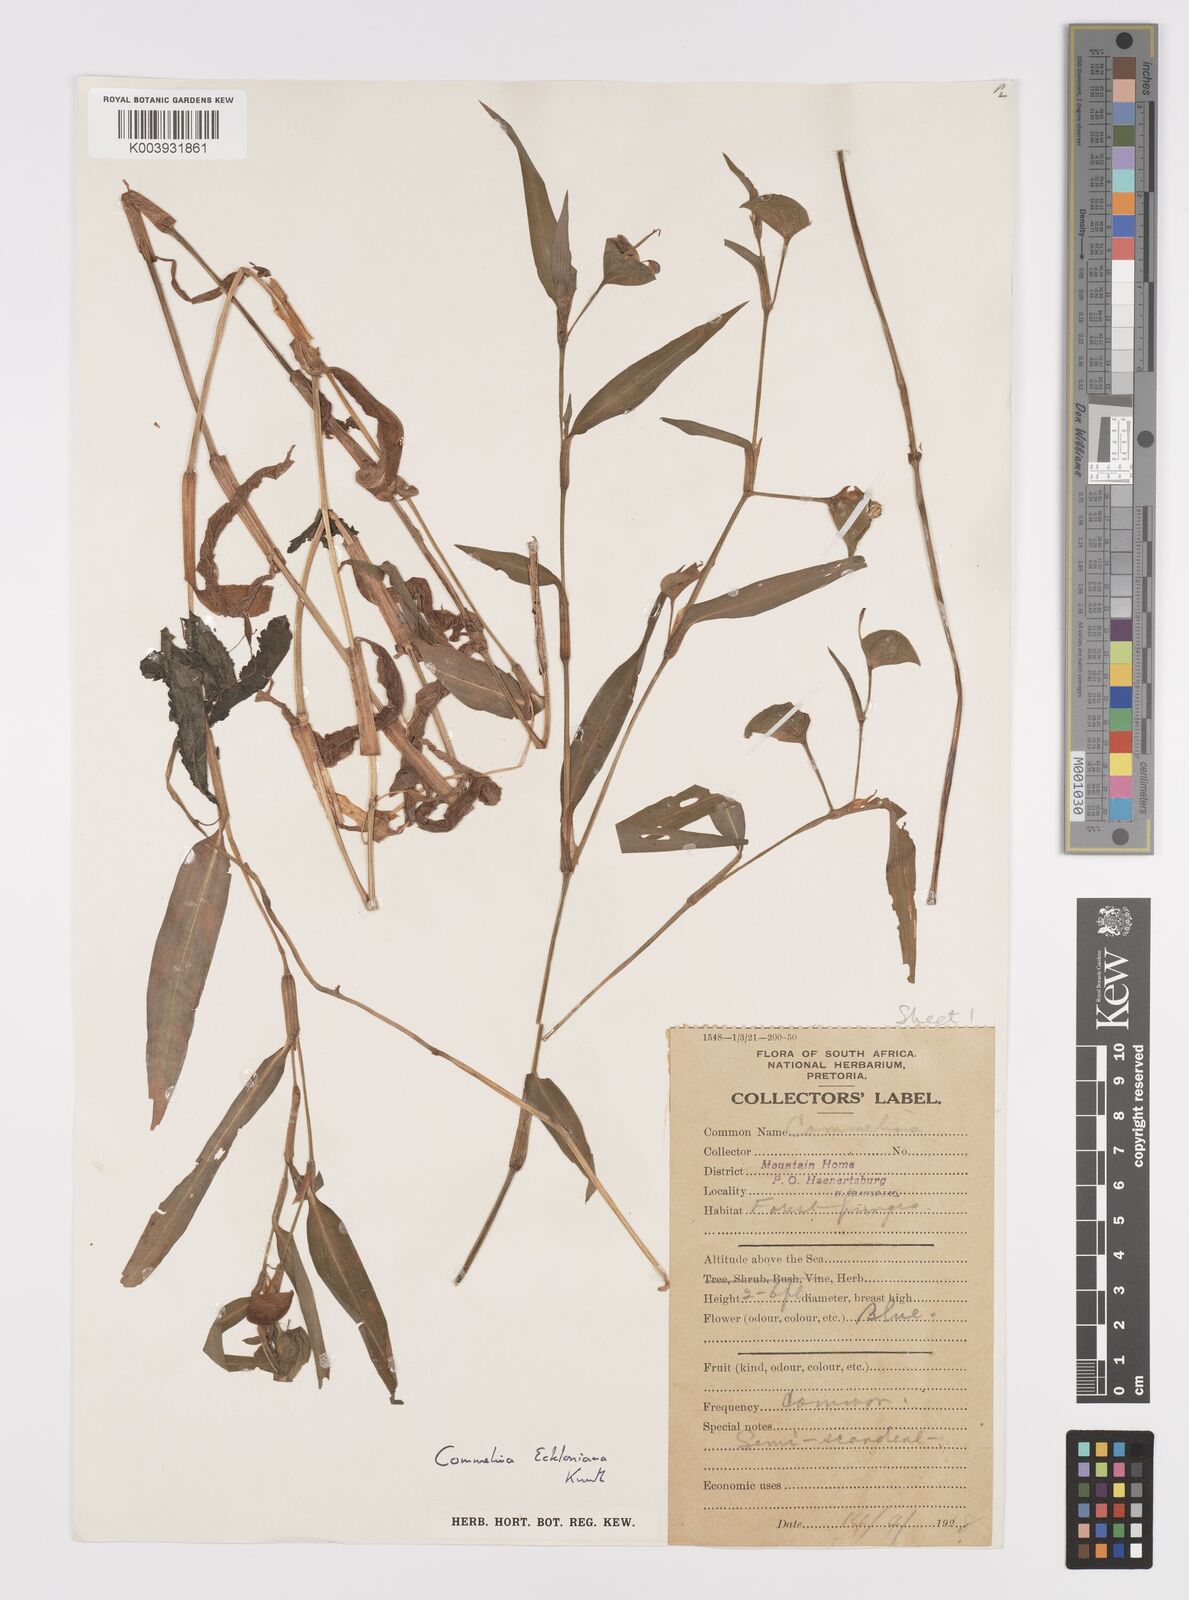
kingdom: Plantae
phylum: Tracheophyta
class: Liliopsida
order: Commelinales
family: Commelinaceae
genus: Commelina
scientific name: Commelina eckloniana
